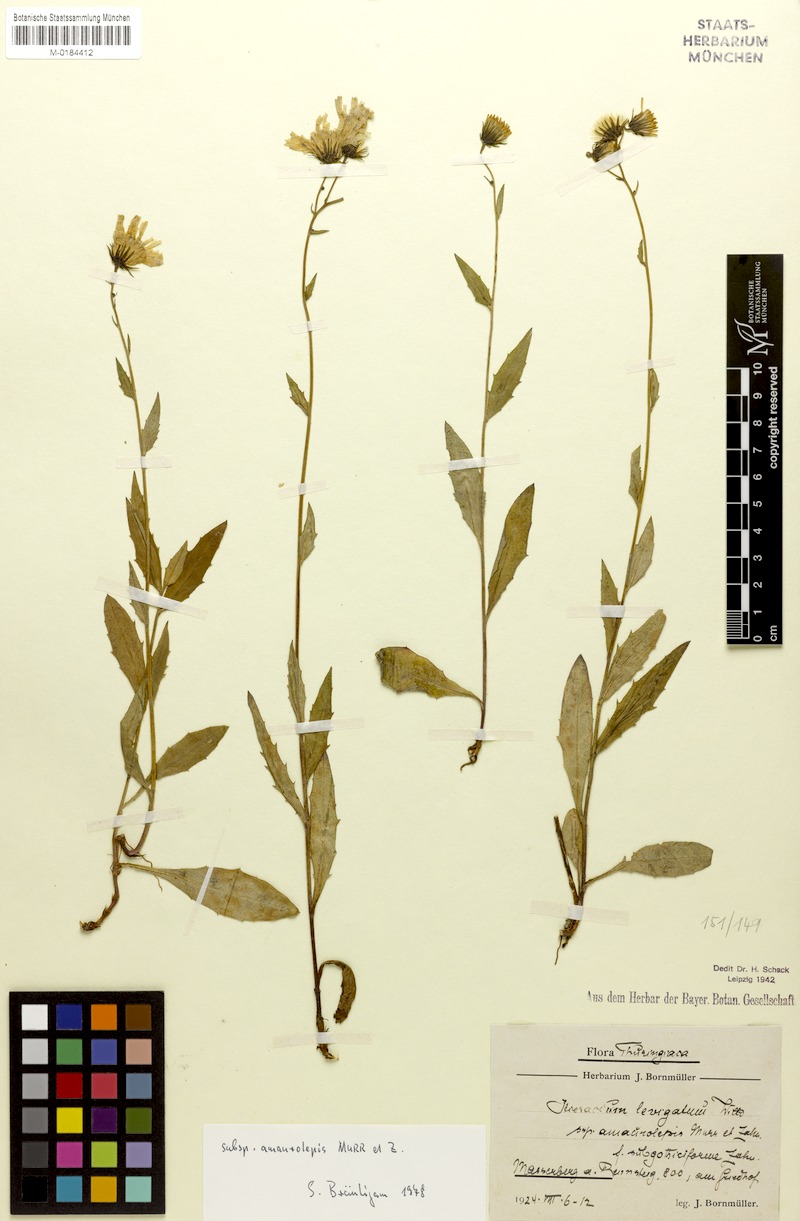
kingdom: Plantae
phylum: Tracheophyta
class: Magnoliopsida
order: Asterales
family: Asteraceae
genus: Hieracium
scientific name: Hieracium laevigatum
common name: Smooth hawkweed
